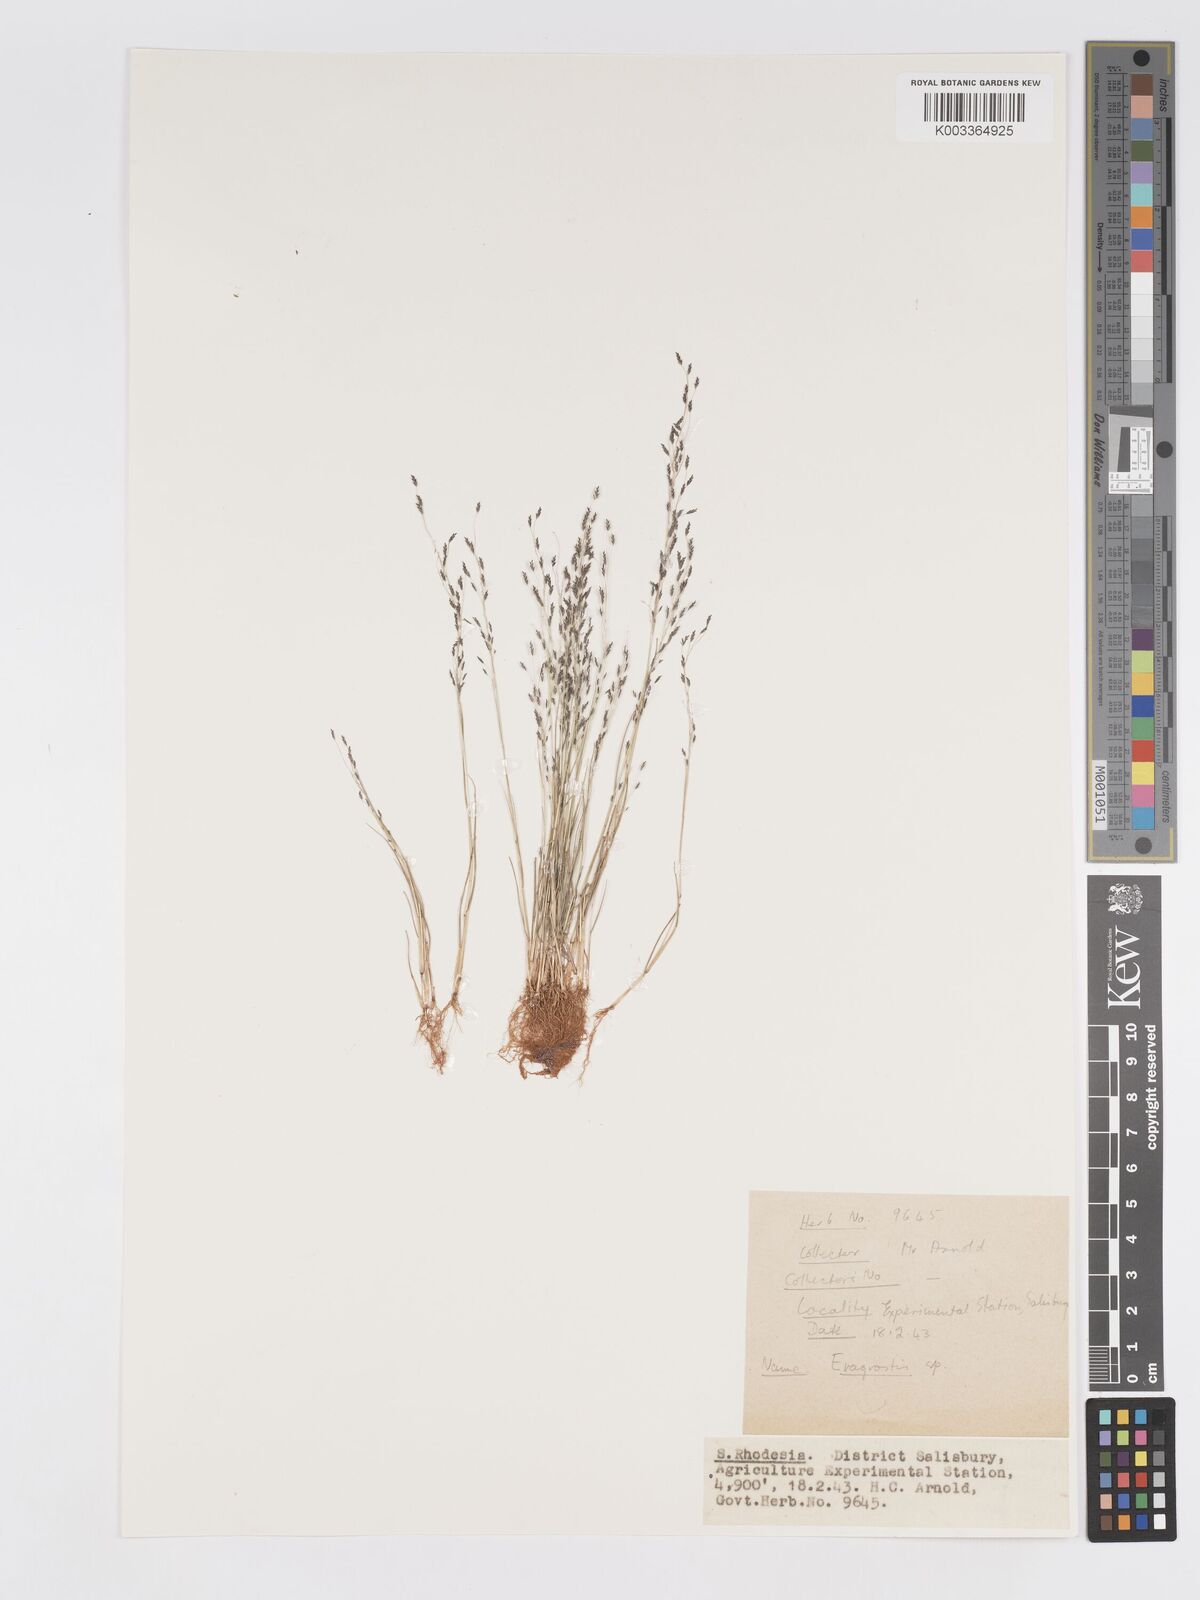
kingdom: Plantae
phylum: Tracheophyta
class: Liliopsida
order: Poales
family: Poaceae
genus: Eragrostis
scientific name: Eragrostis pilosa
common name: Indian lovegrass
